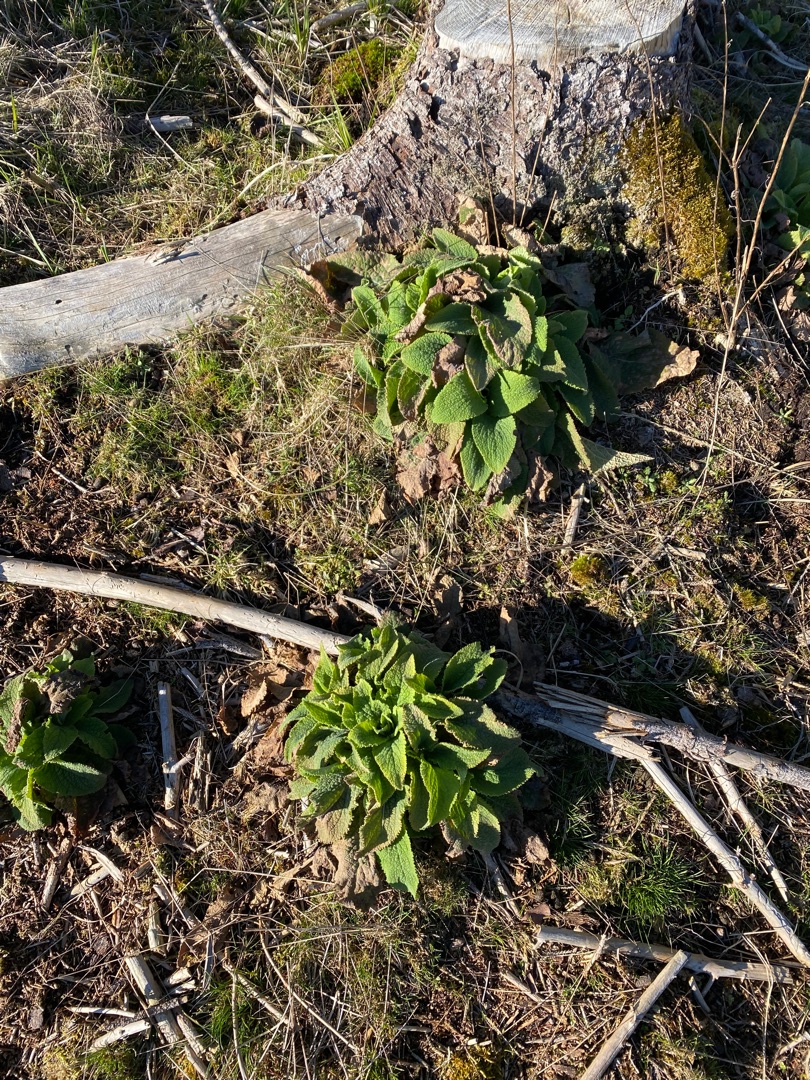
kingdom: Plantae
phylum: Tracheophyta
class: Magnoliopsida
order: Lamiales
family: Plantaginaceae
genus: Digitalis
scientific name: Digitalis purpurea
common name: Almindelig fingerbøl
